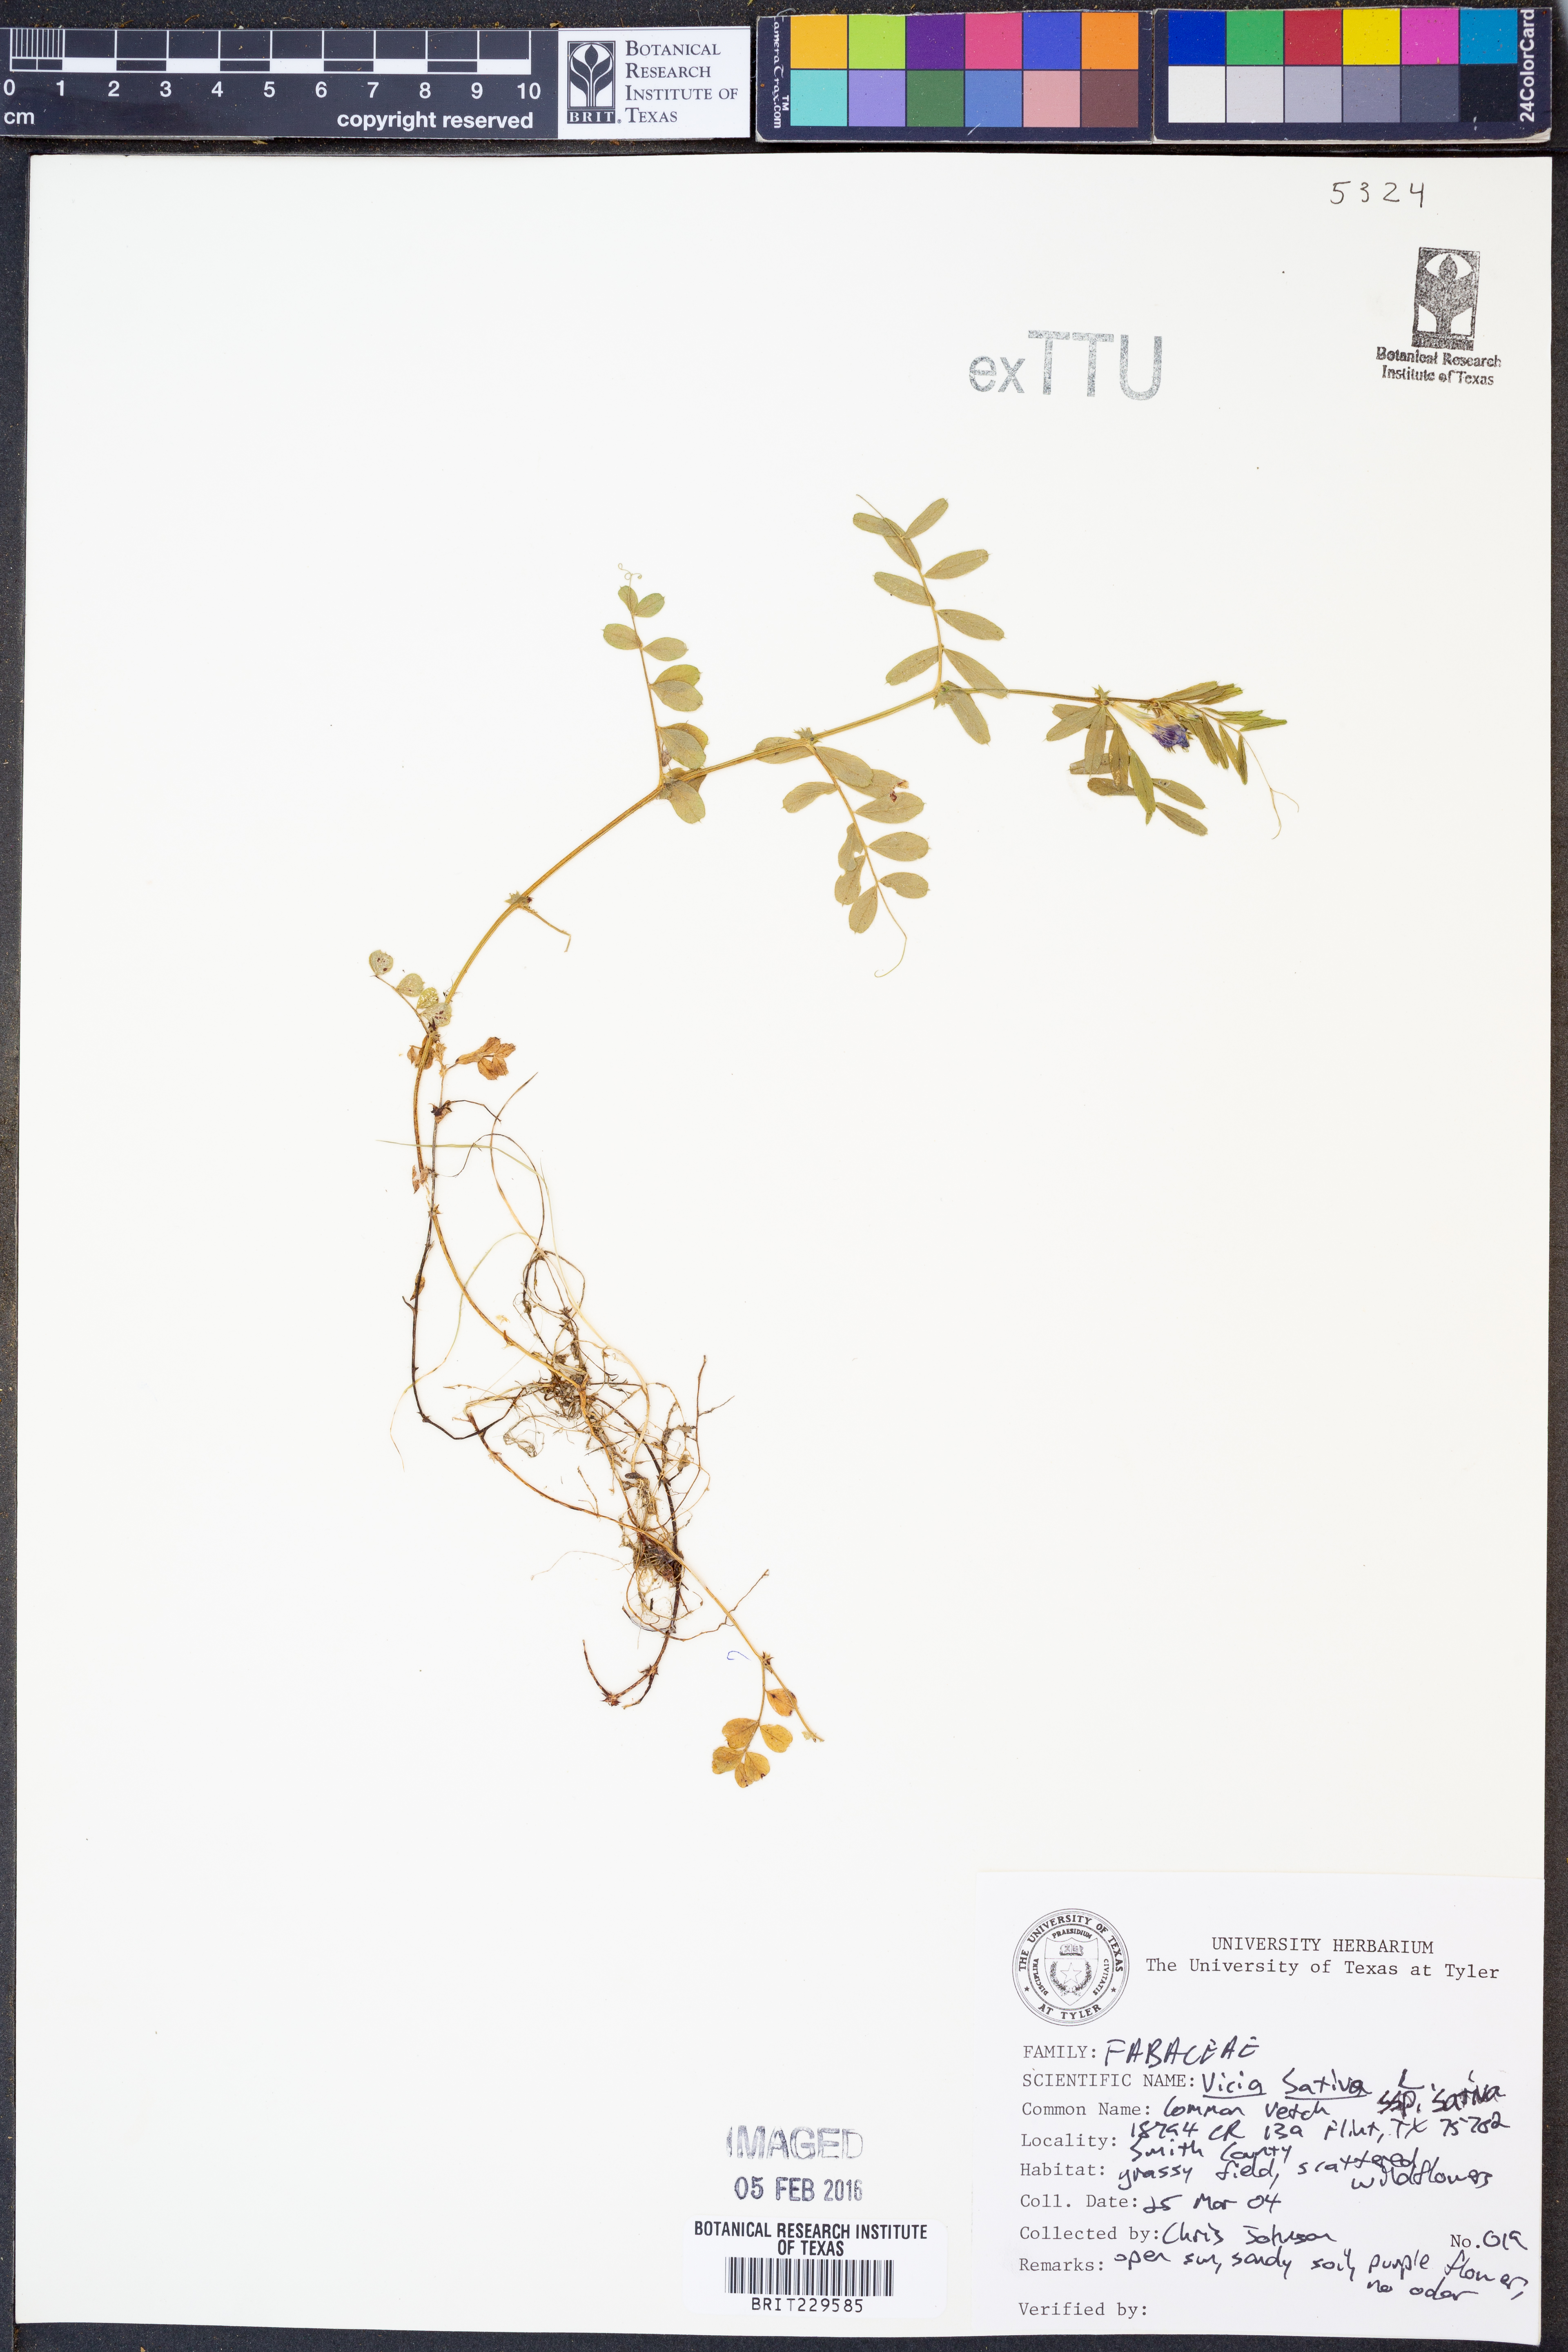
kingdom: Plantae
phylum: Tracheophyta
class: Magnoliopsida
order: Fabales
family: Fabaceae
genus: Vicia
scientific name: Vicia sativa
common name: Garden vetch
